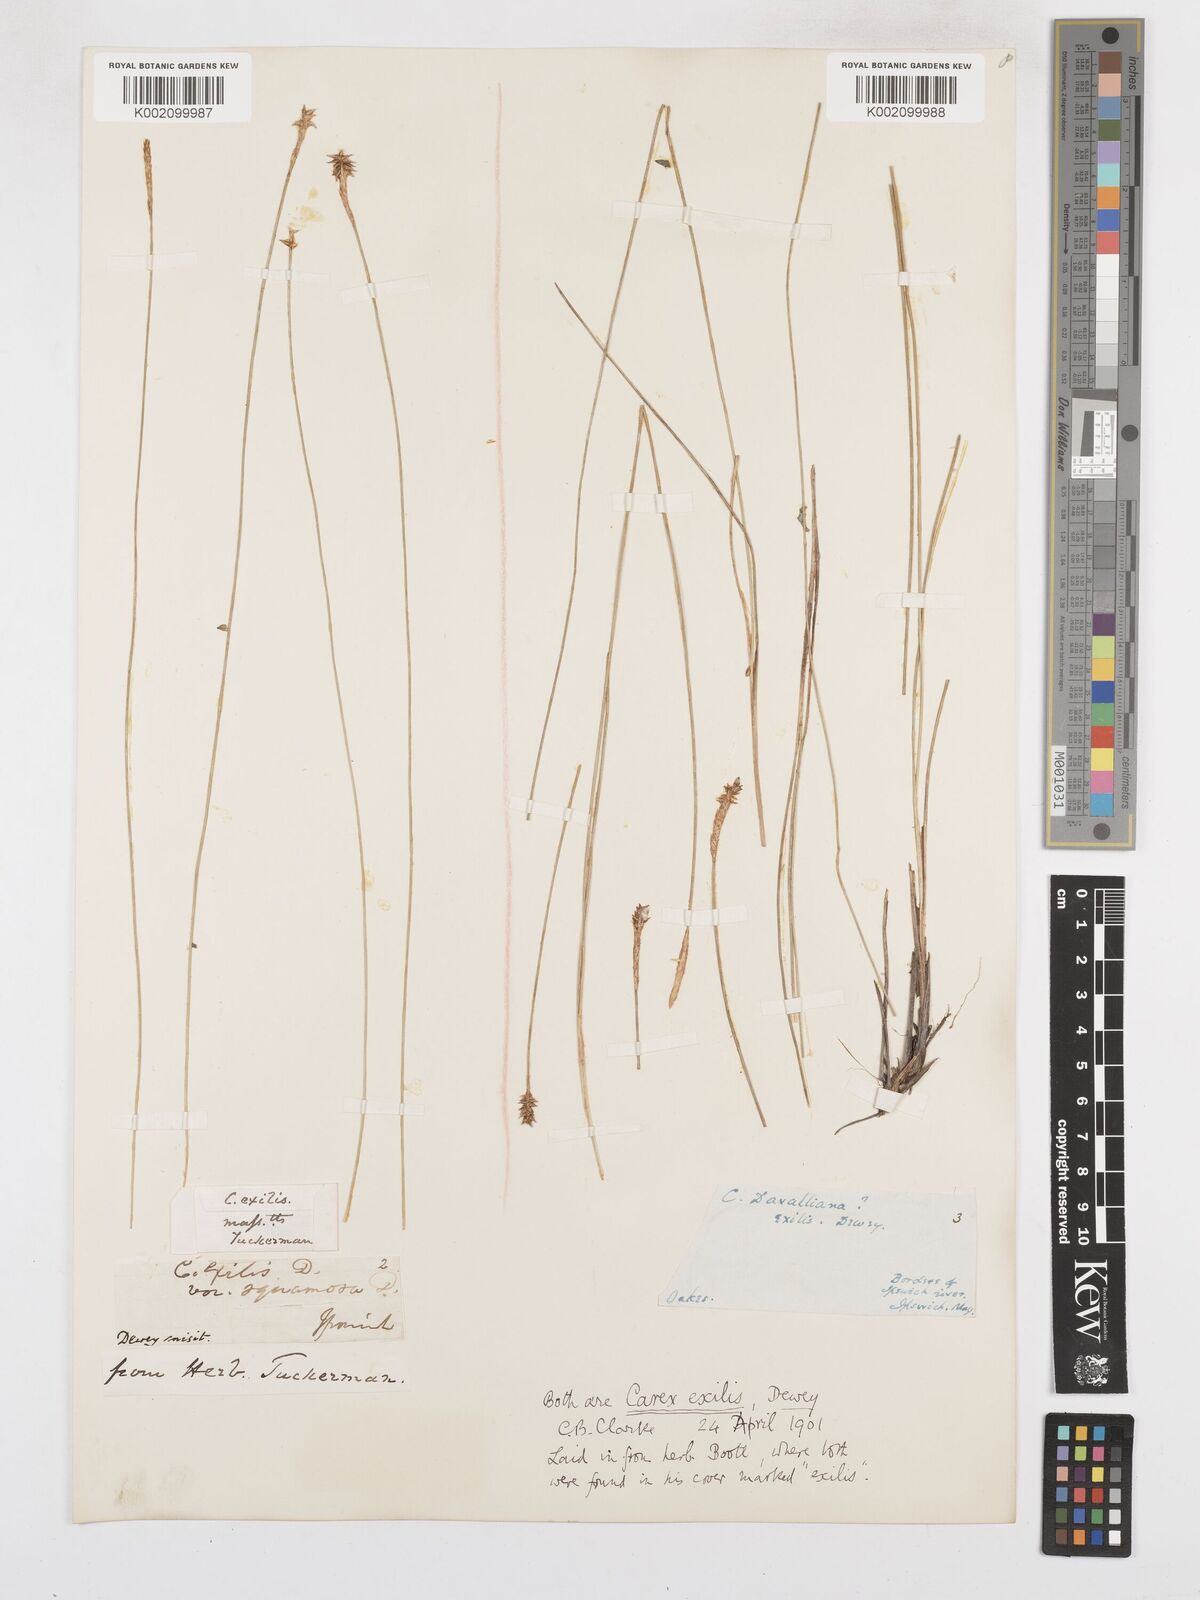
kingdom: Plantae
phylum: Tracheophyta
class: Liliopsida
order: Poales
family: Cyperaceae
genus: Carex
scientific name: Carex exilis
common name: Coastal sedge
